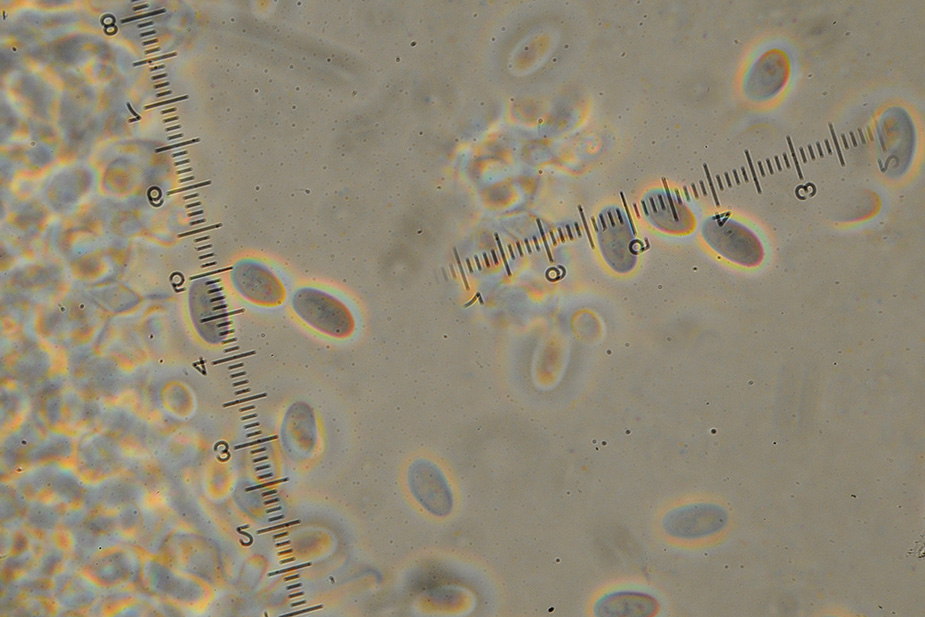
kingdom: Fungi
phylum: Basidiomycota
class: Agaricomycetes
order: Agaricales
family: Psathyrellaceae
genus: Coprinopsis
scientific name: Coprinopsis stercorea
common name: pjusket blækhat
